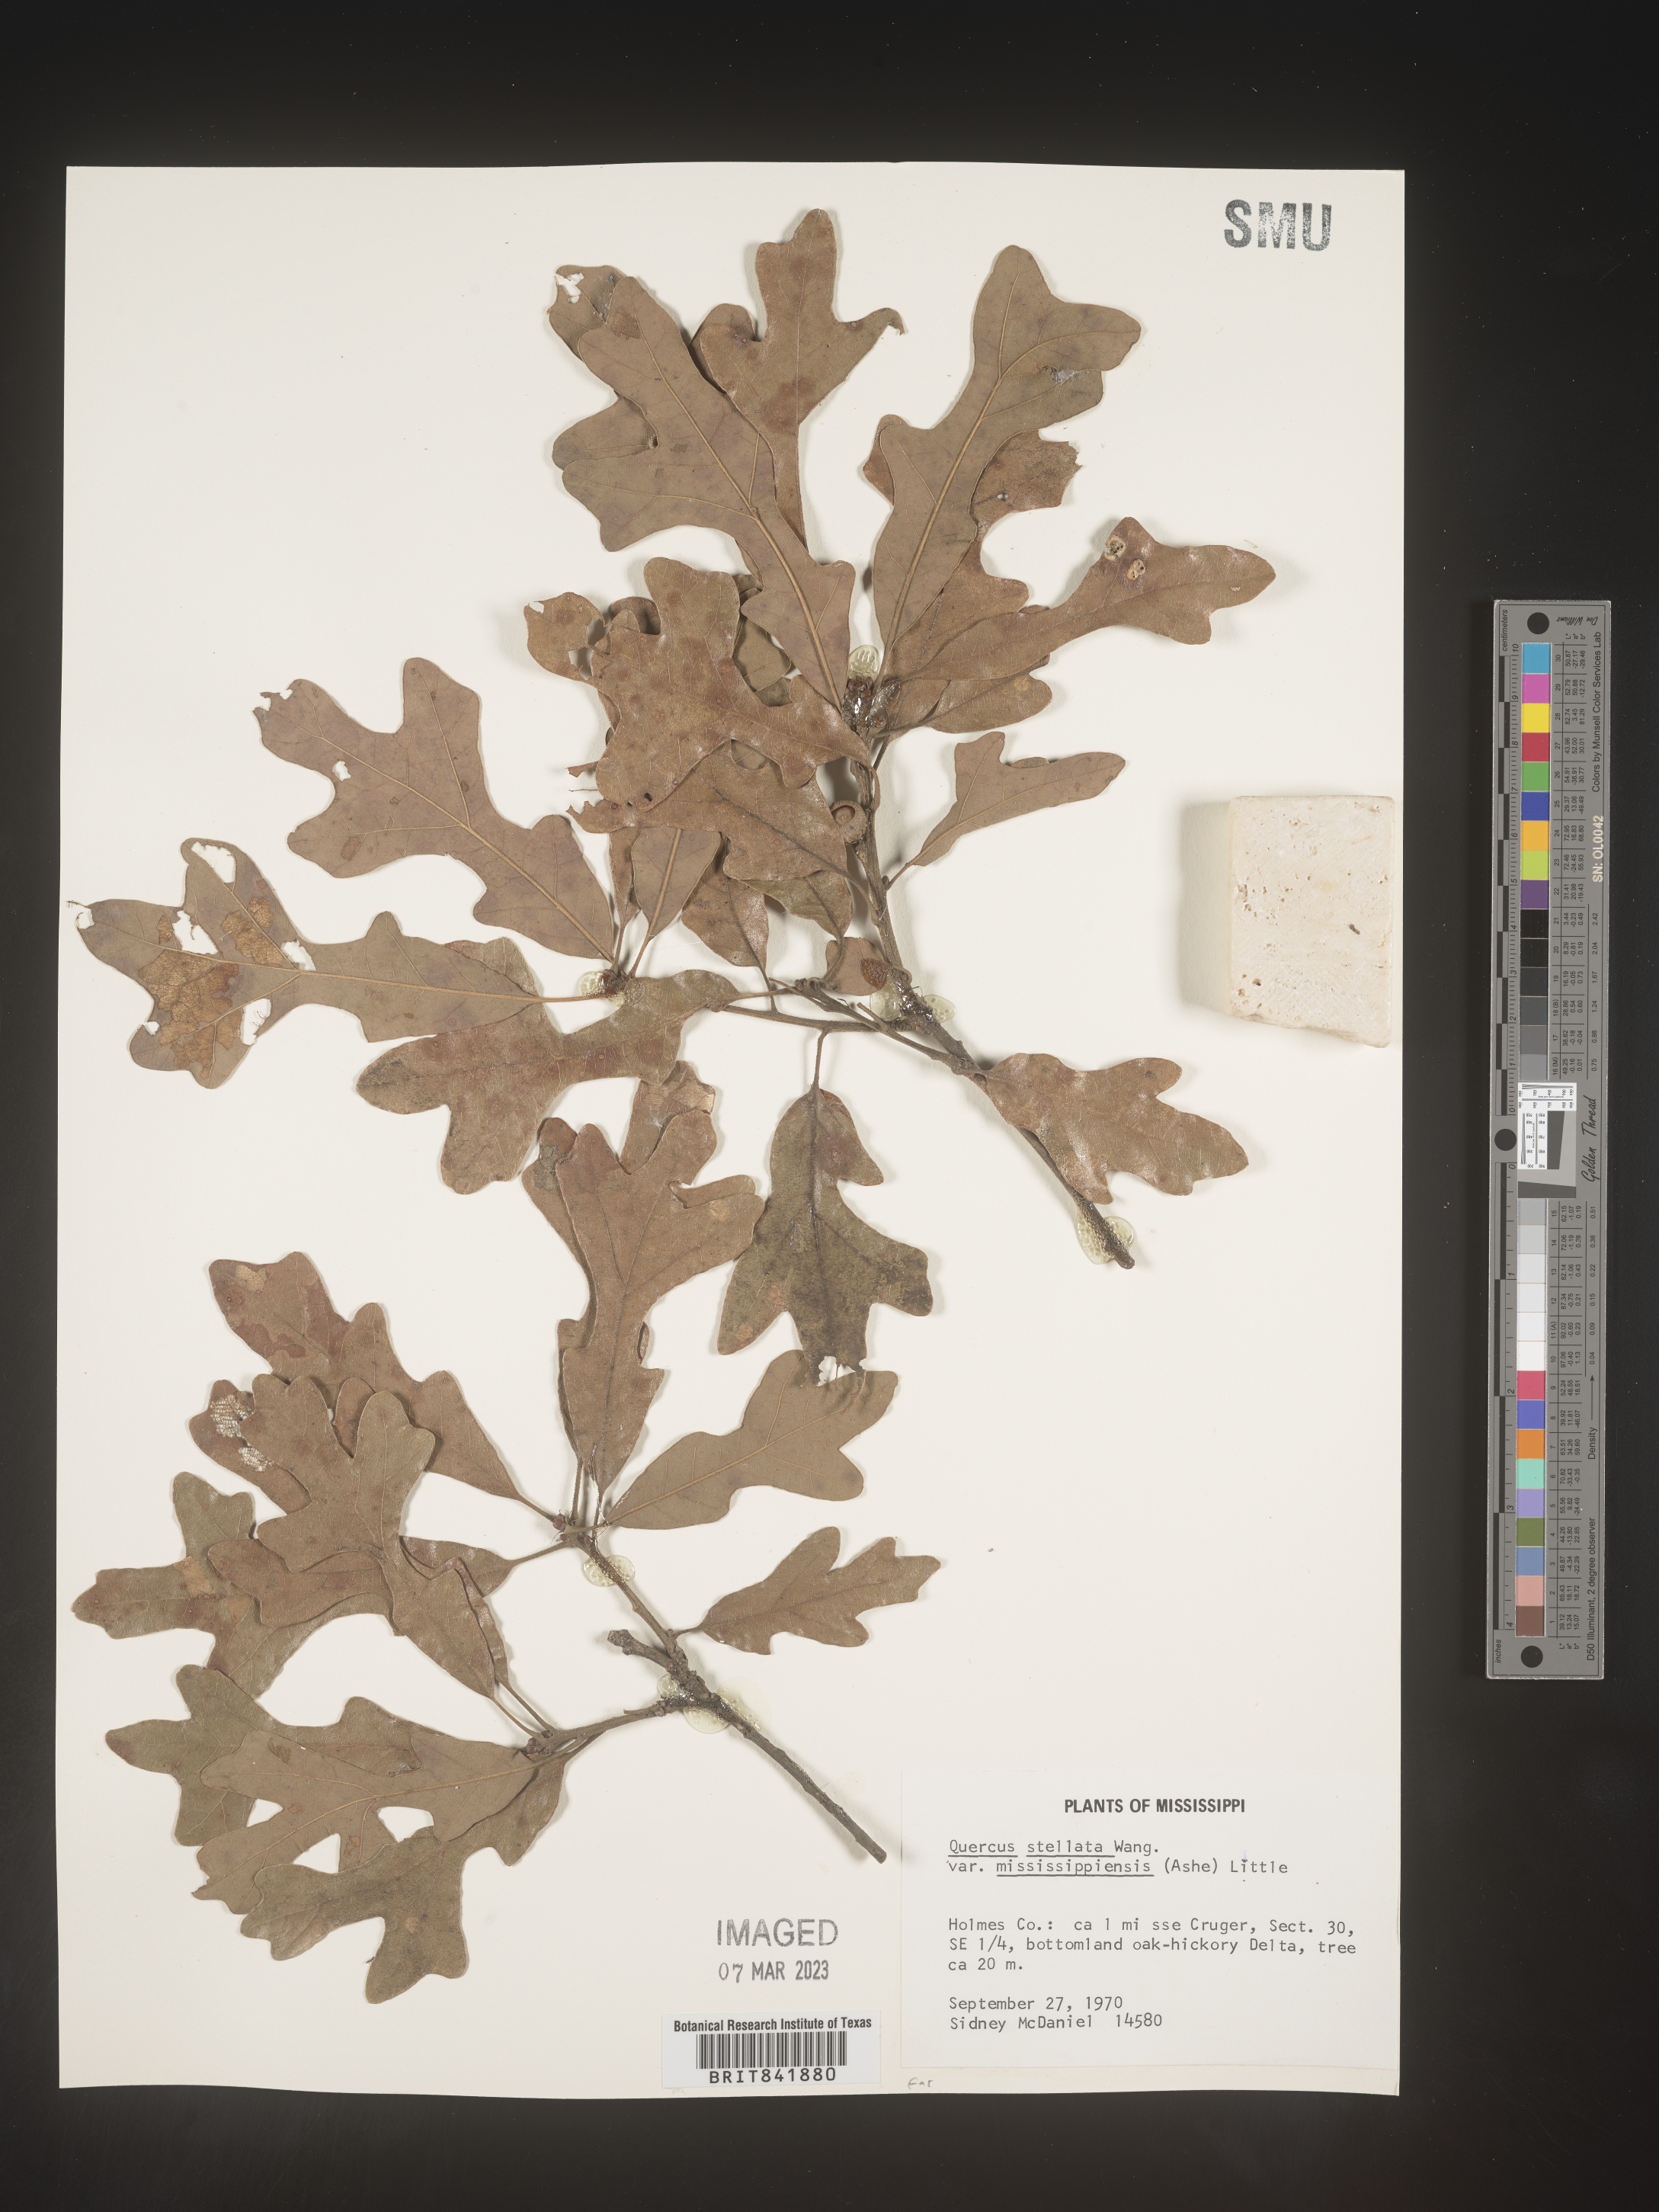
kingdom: Plantae
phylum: Tracheophyta
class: Magnoliopsida
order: Fagales
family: Fagaceae
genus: Quercus
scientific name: Quercus stellata
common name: Post oak
